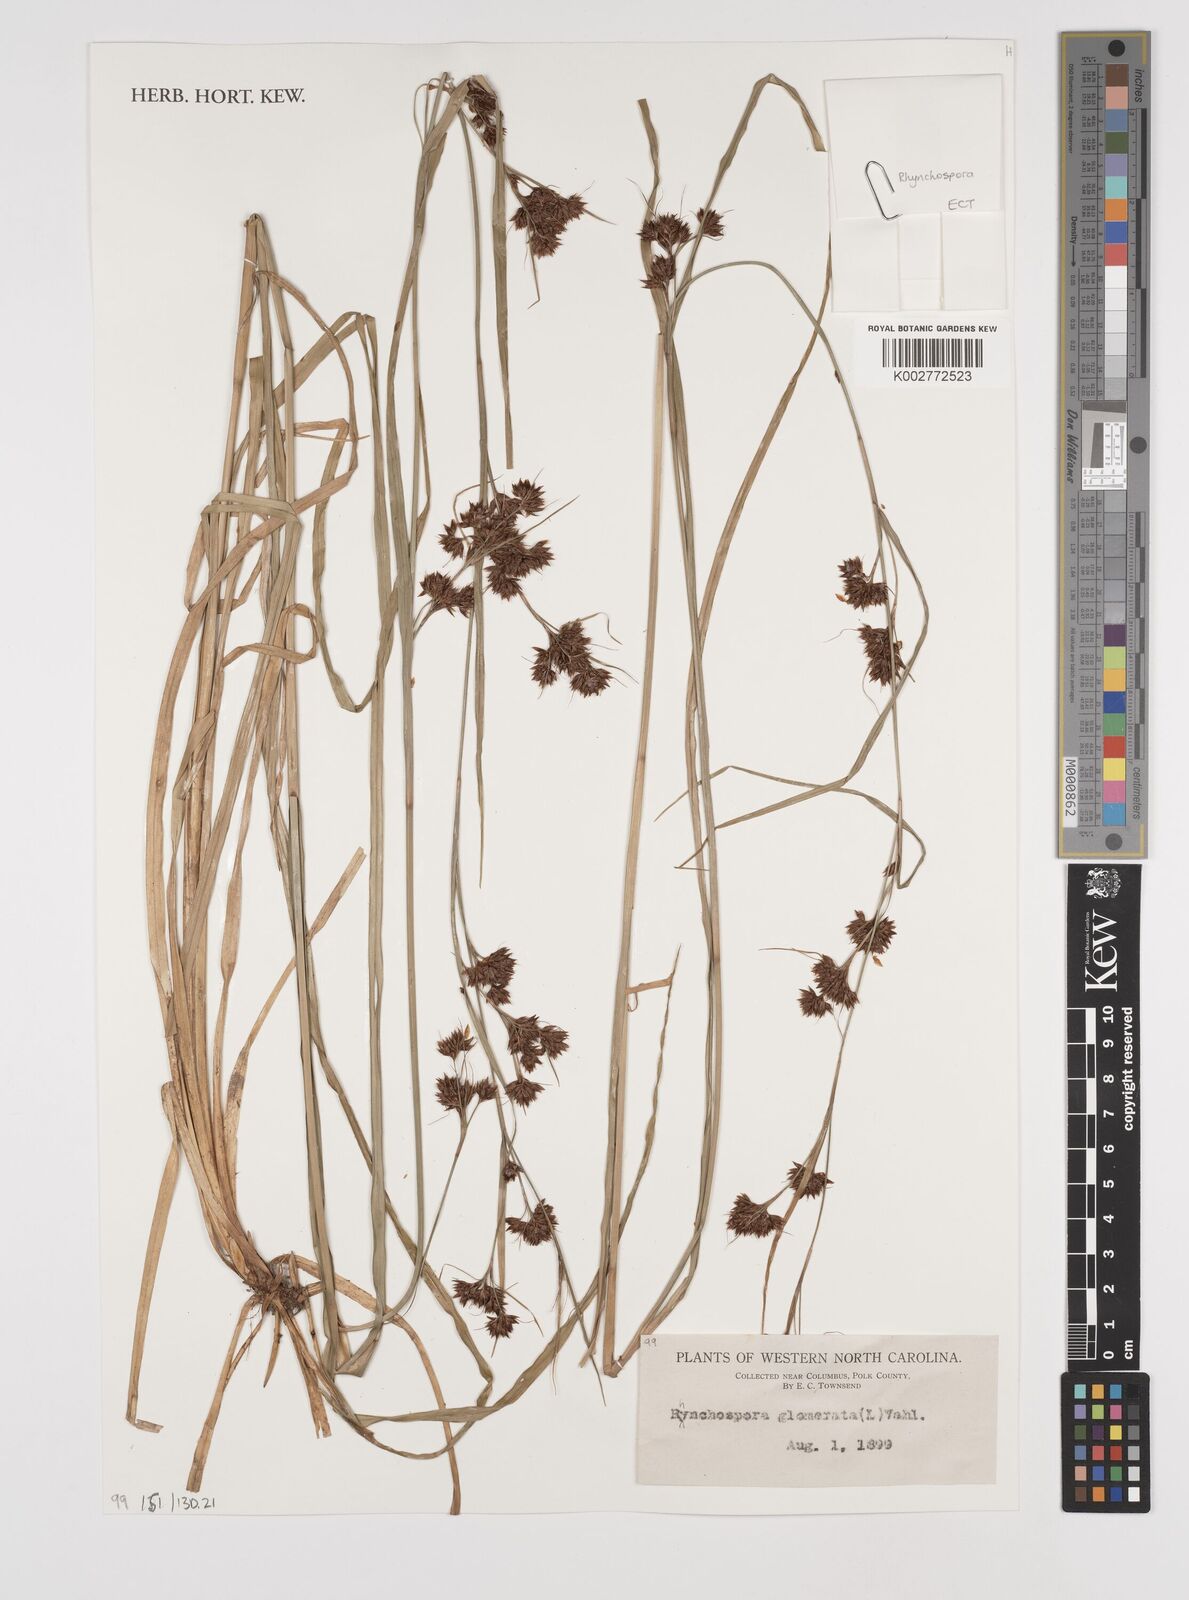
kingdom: Plantae
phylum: Tracheophyta
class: Liliopsida
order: Poales
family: Cyperaceae
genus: Rhynchospora
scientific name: Rhynchospora glomerata
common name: Cluster beak sedge
